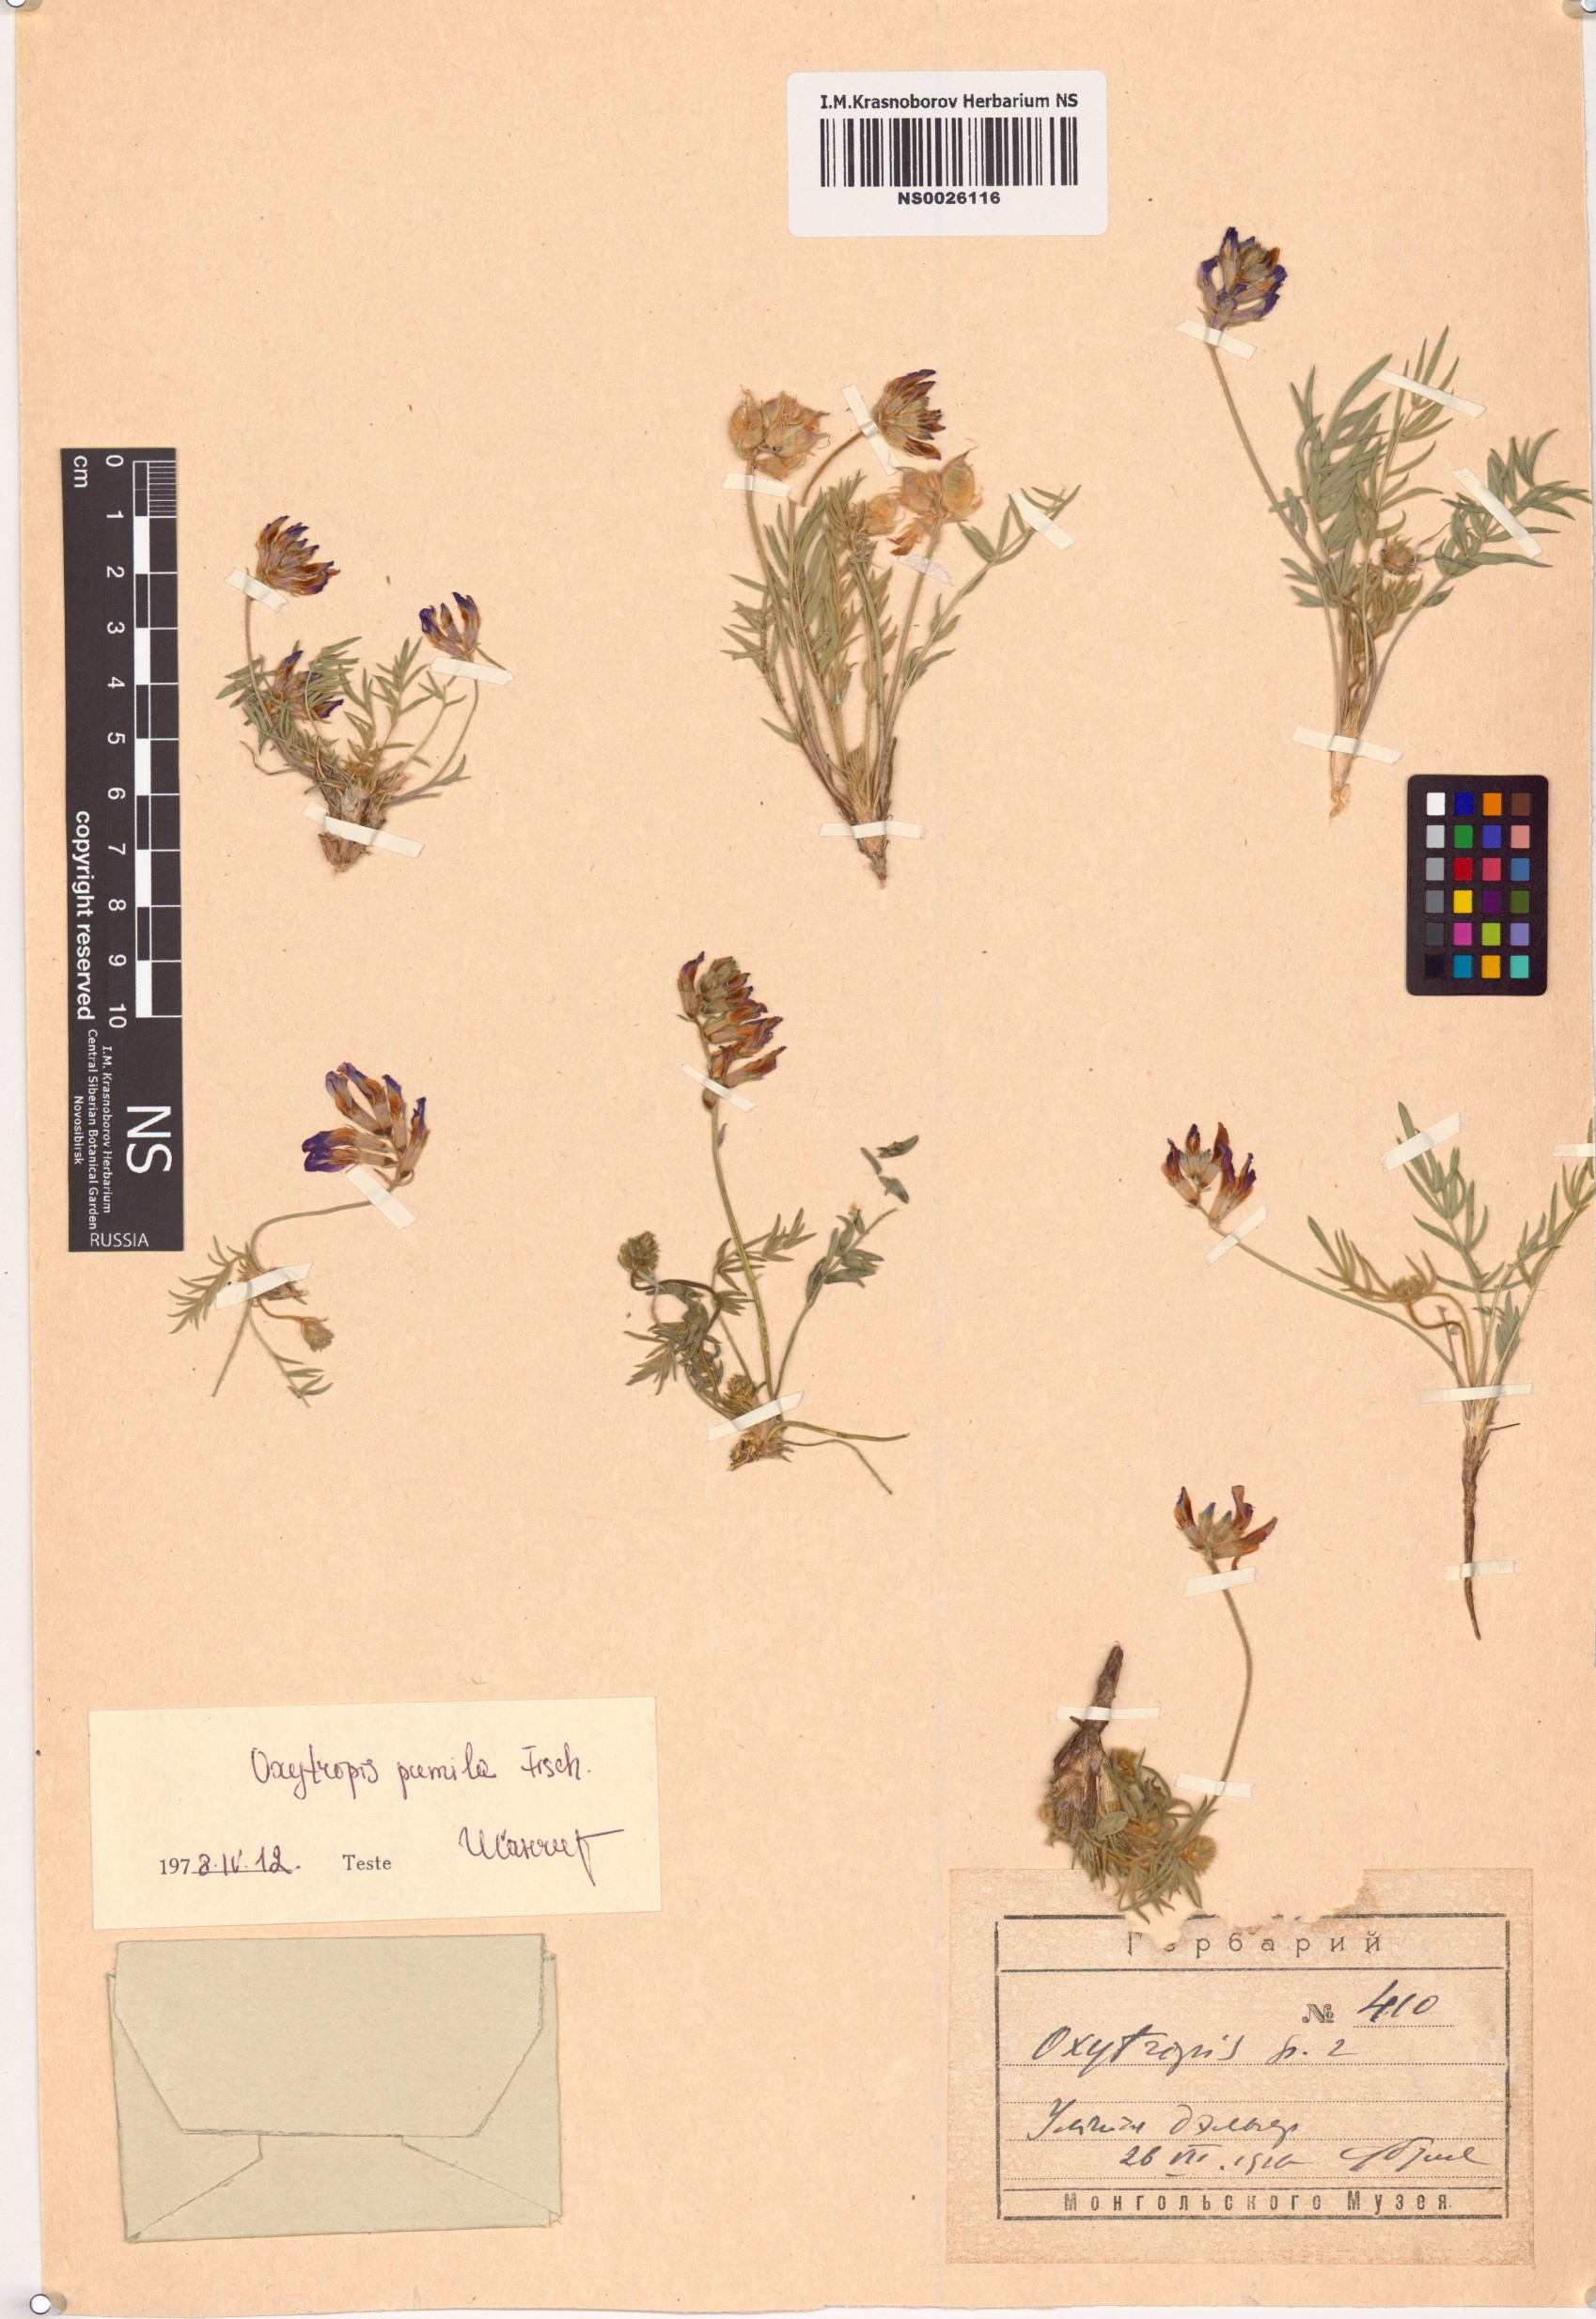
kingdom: Plantae
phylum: Tracheophyta
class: Magnoliopsida
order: Fabales
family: Fabaceae
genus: Oxytropis
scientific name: Oxytropis pumila
